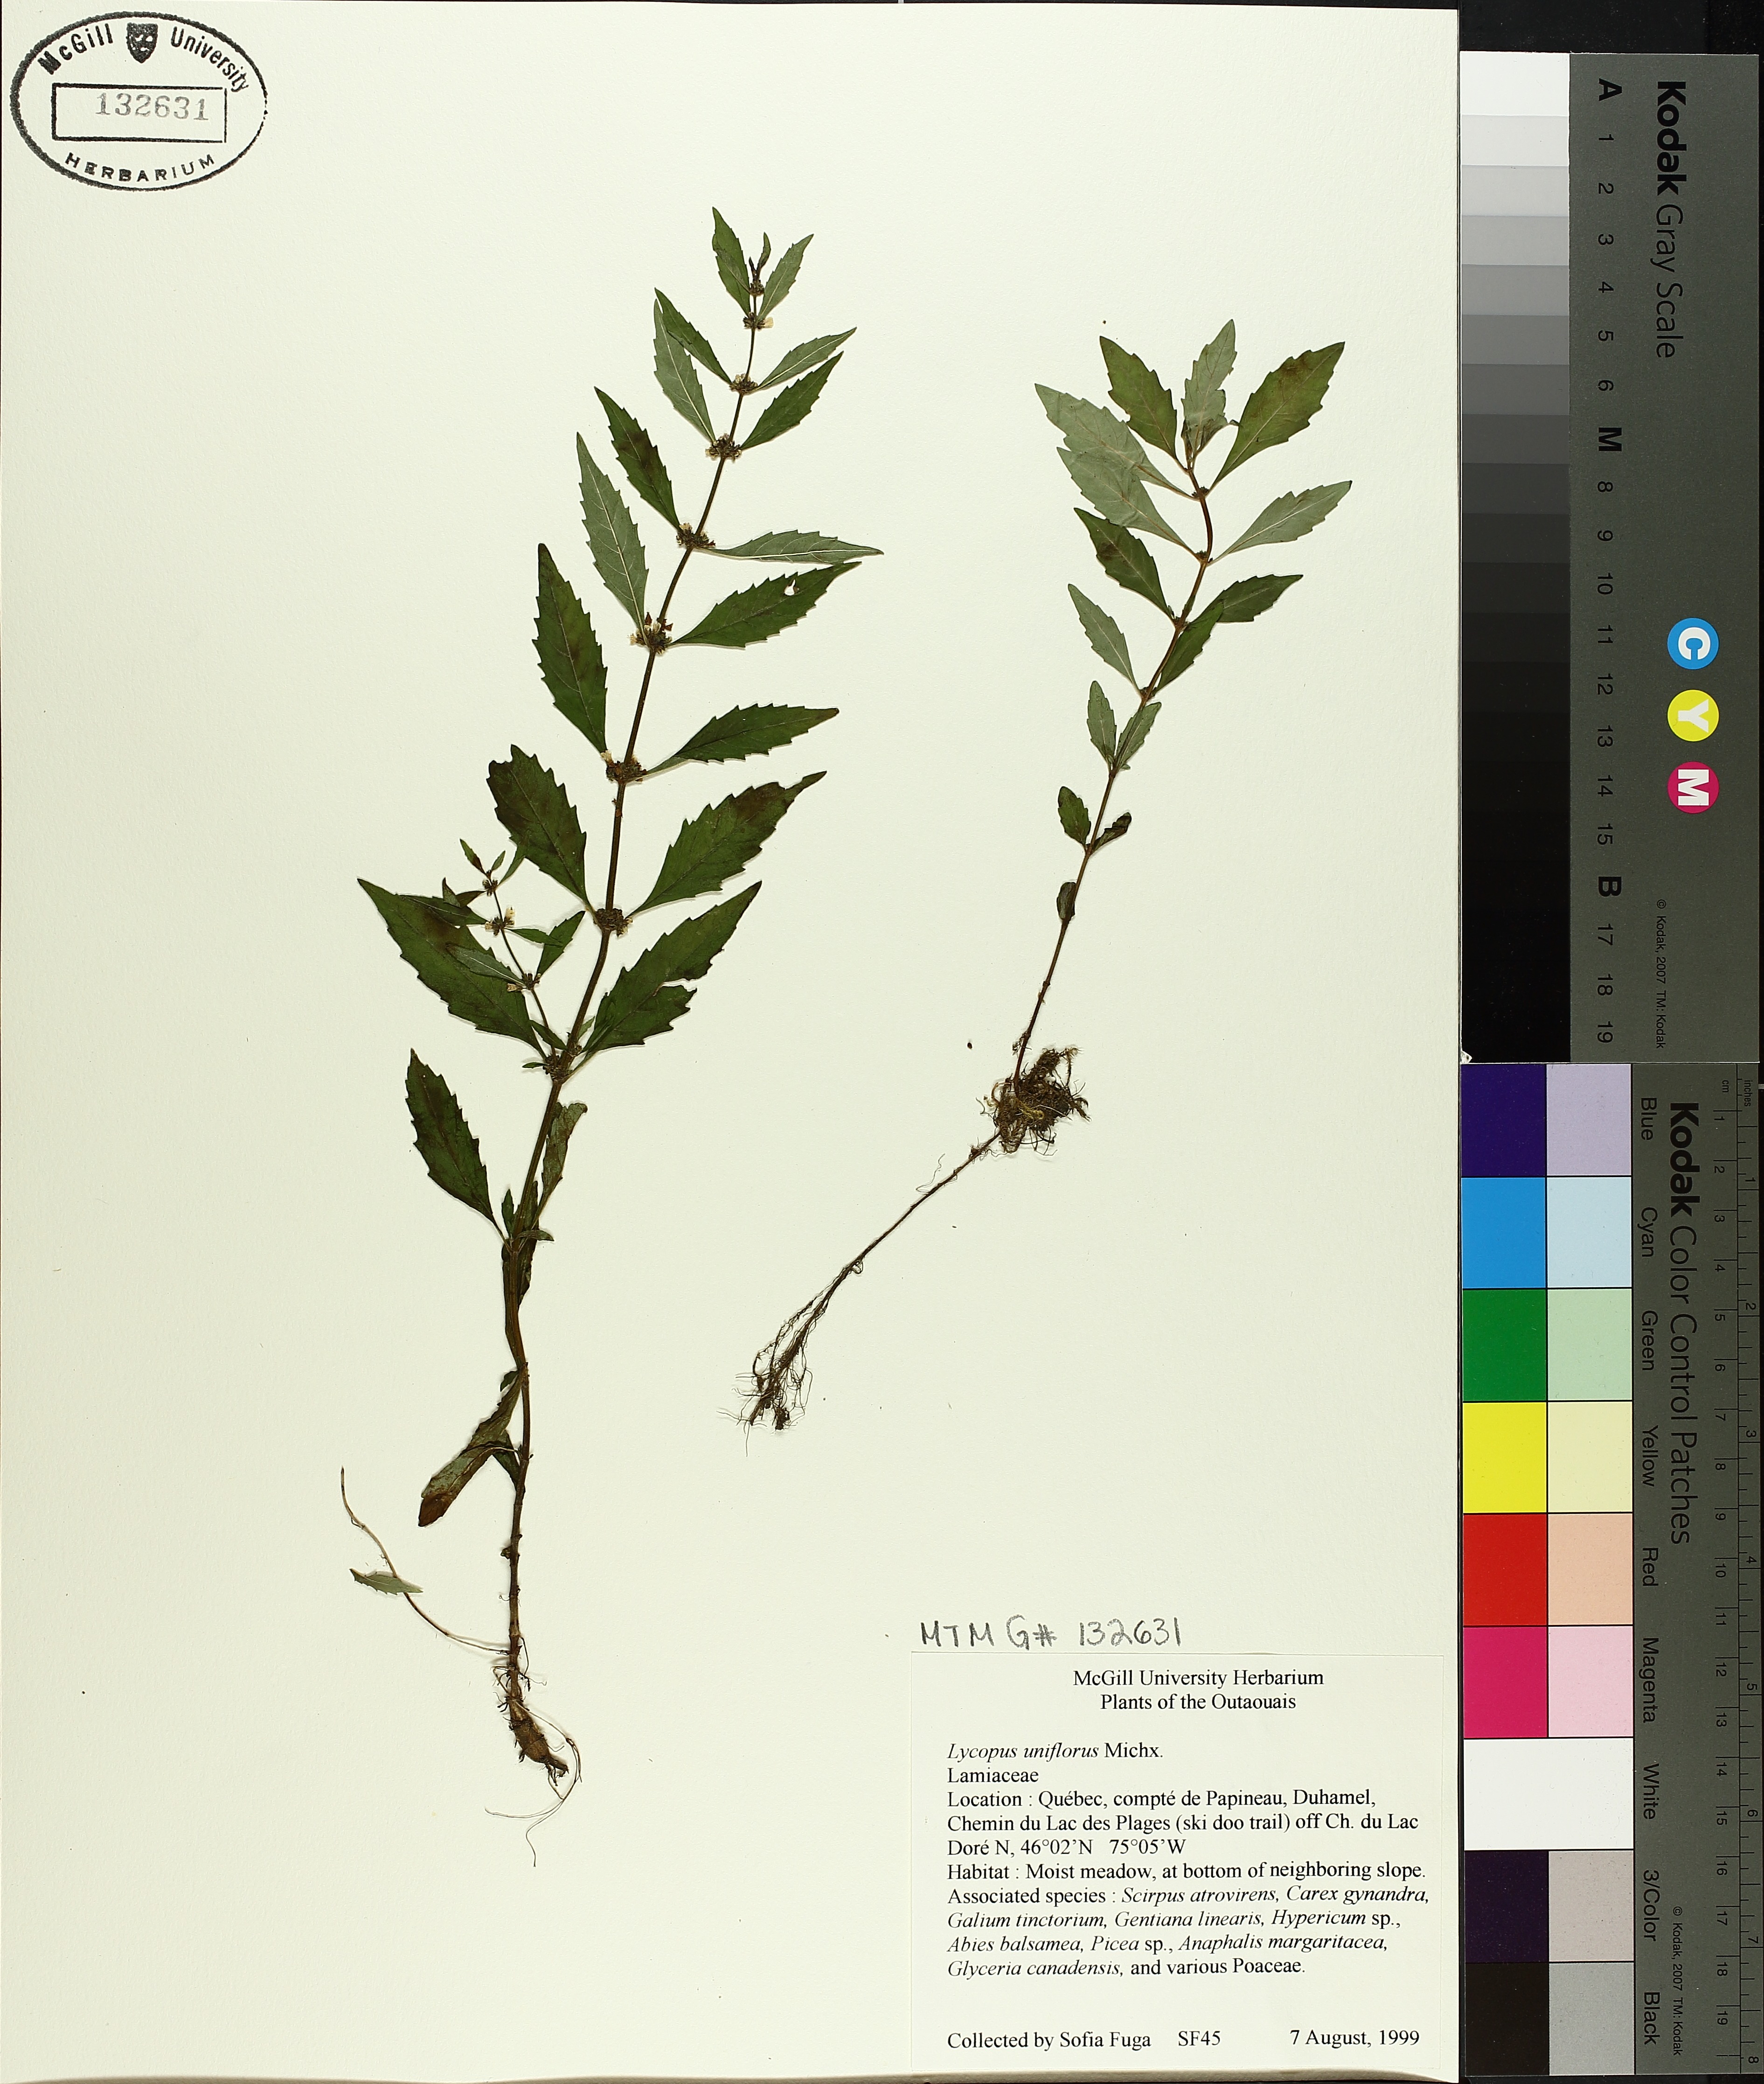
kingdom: Plantae
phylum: Tracheophyta
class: Magnoliopsida
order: Lamiales
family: Lamiaceae
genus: Lycopus
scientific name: Lycopus uniflorus
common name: Northern bugleweed
